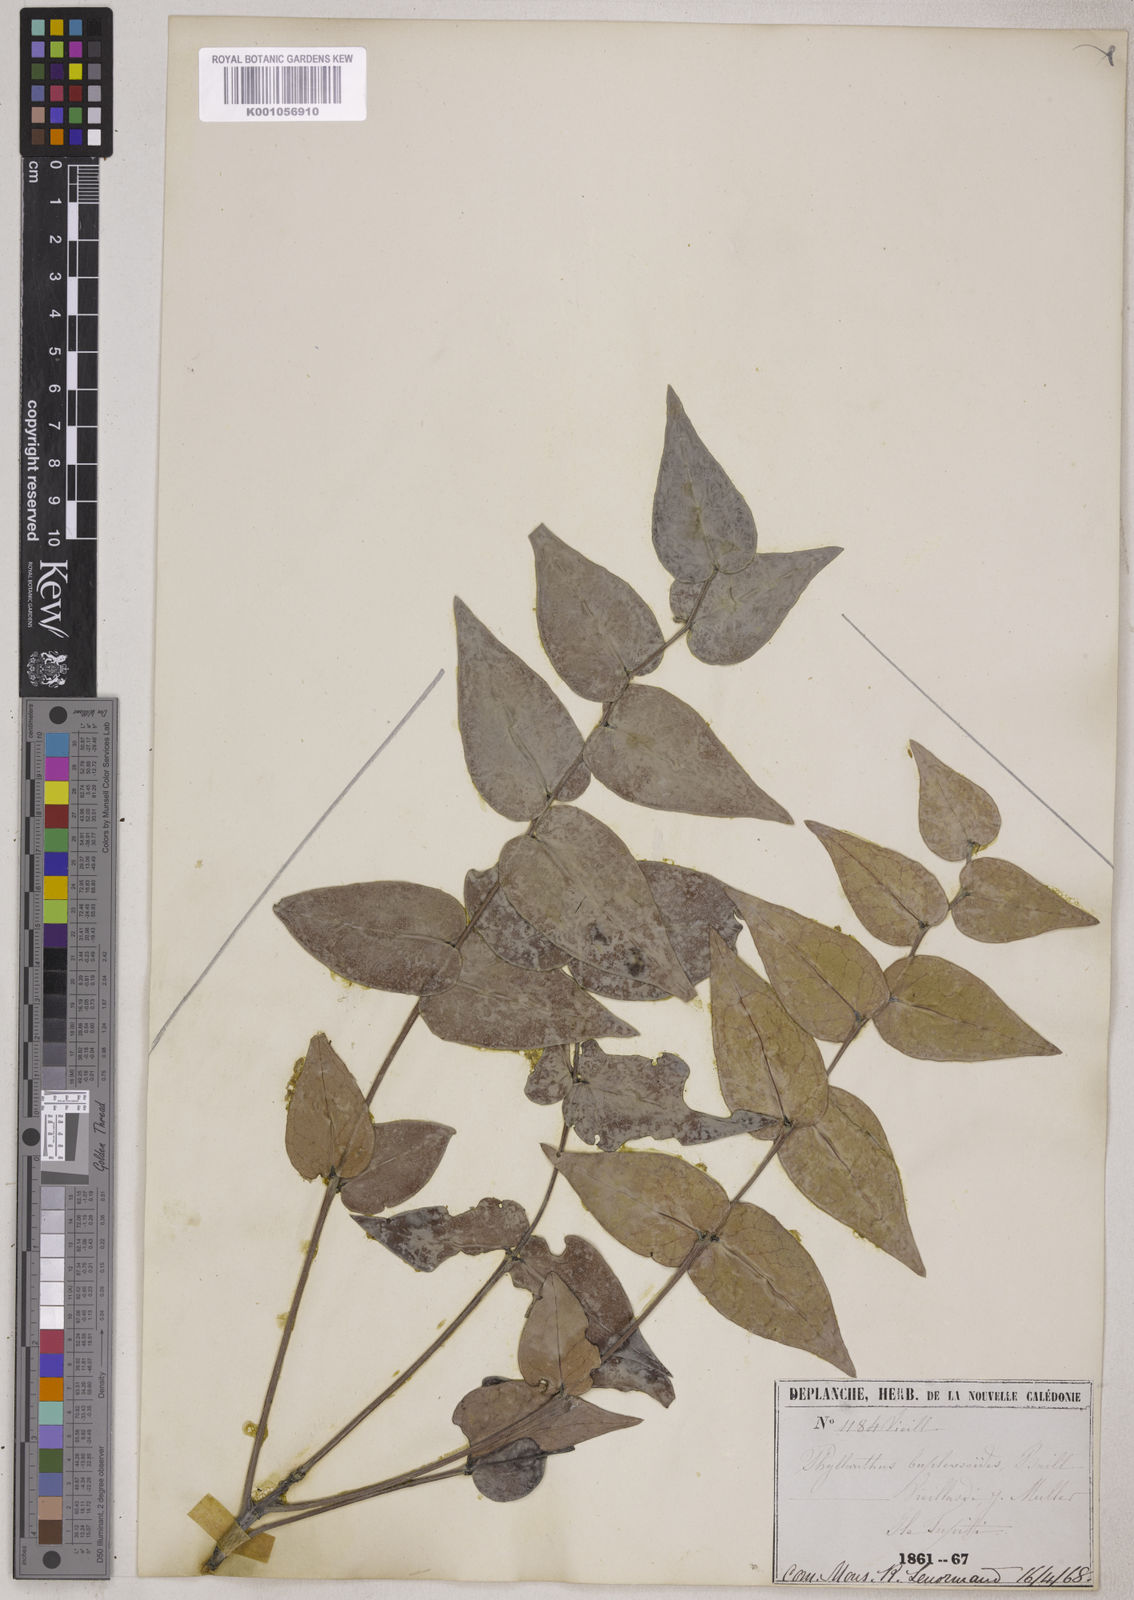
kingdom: Plantae
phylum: Tracheophyta
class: Magnoliopsida
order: Malpighiales
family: Phyllanthaceae
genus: Phyllanthus
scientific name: Phyllanthus bupleuroides
